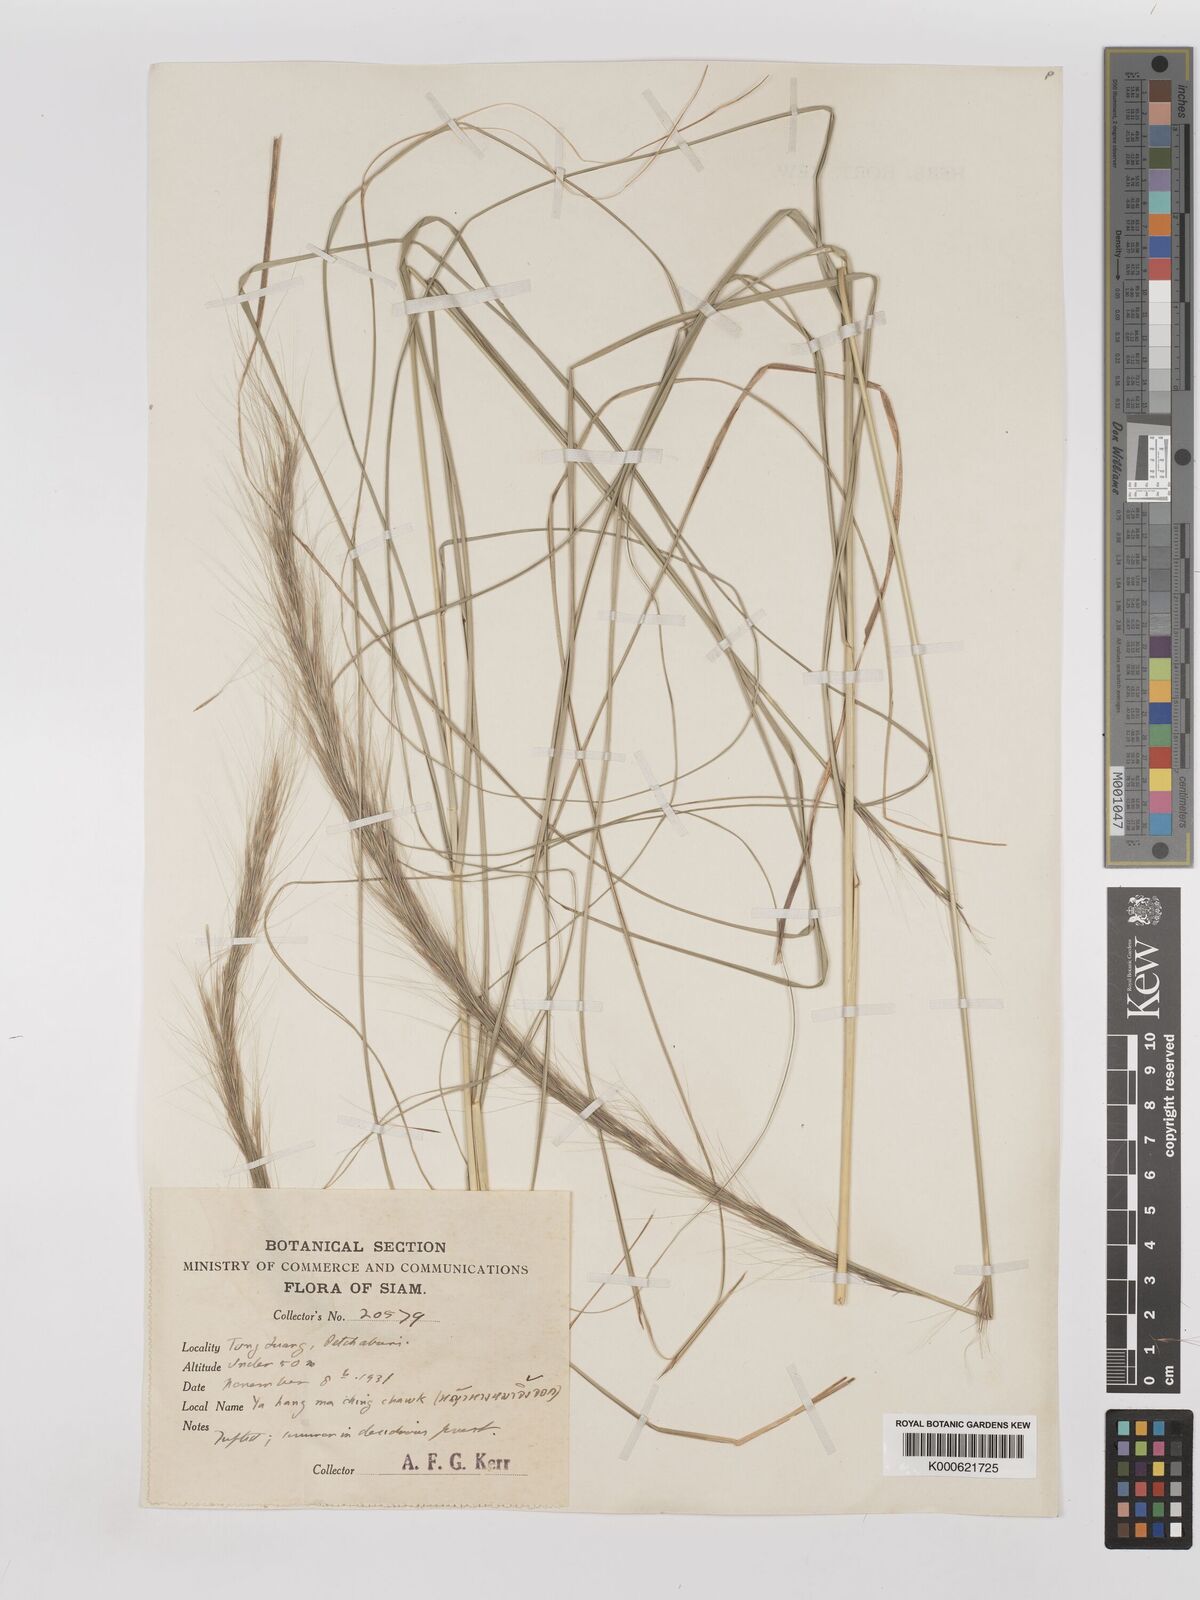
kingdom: Plantae
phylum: Tracheophyta
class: Liliopsida
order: Poales
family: Poaceae
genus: Aristida
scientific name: Aristida balansae
